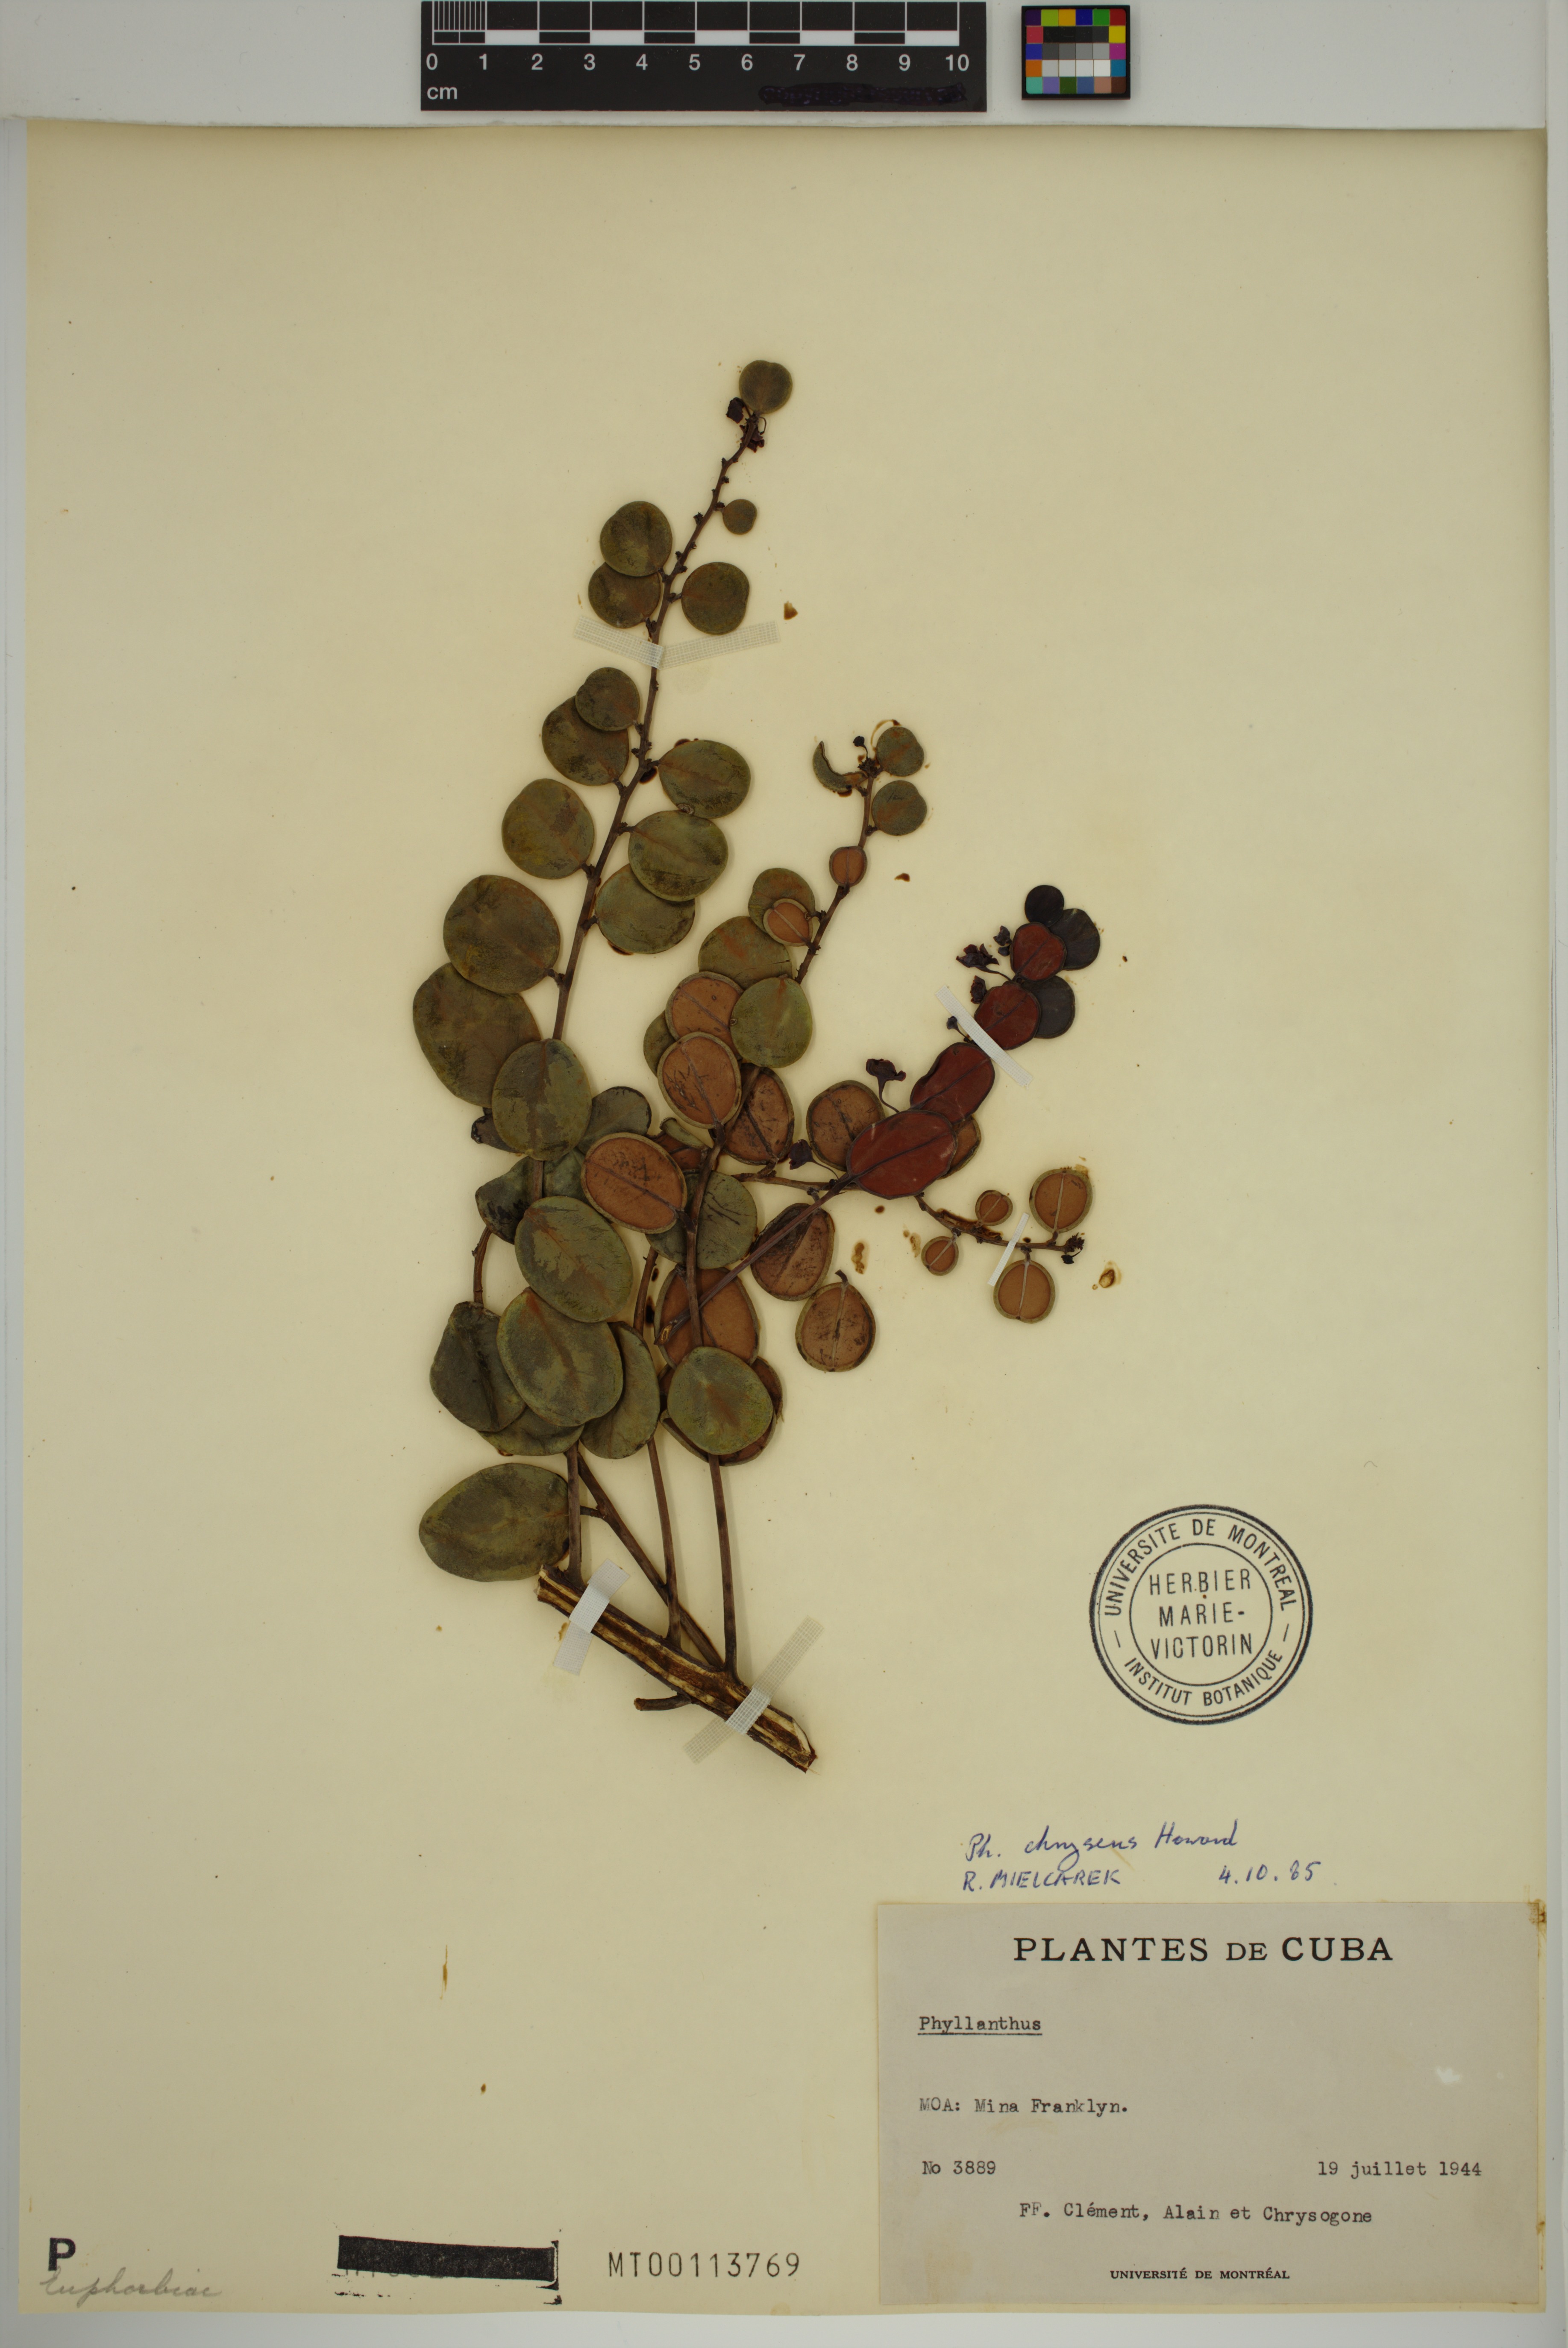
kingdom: Plantae
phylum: Tracheophyta
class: Magnoliopsida
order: Malpighiales
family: Phyllanthaceae
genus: Phyllanthus
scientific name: Phyllanthus chryseus
